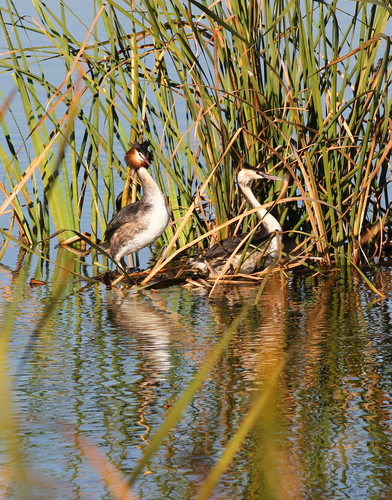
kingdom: Animalia
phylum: Chordata
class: Aves
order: Podicipediformes
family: Podicipedidae
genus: Podiceps
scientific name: Podiceps cristatus
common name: Great crested grebe
